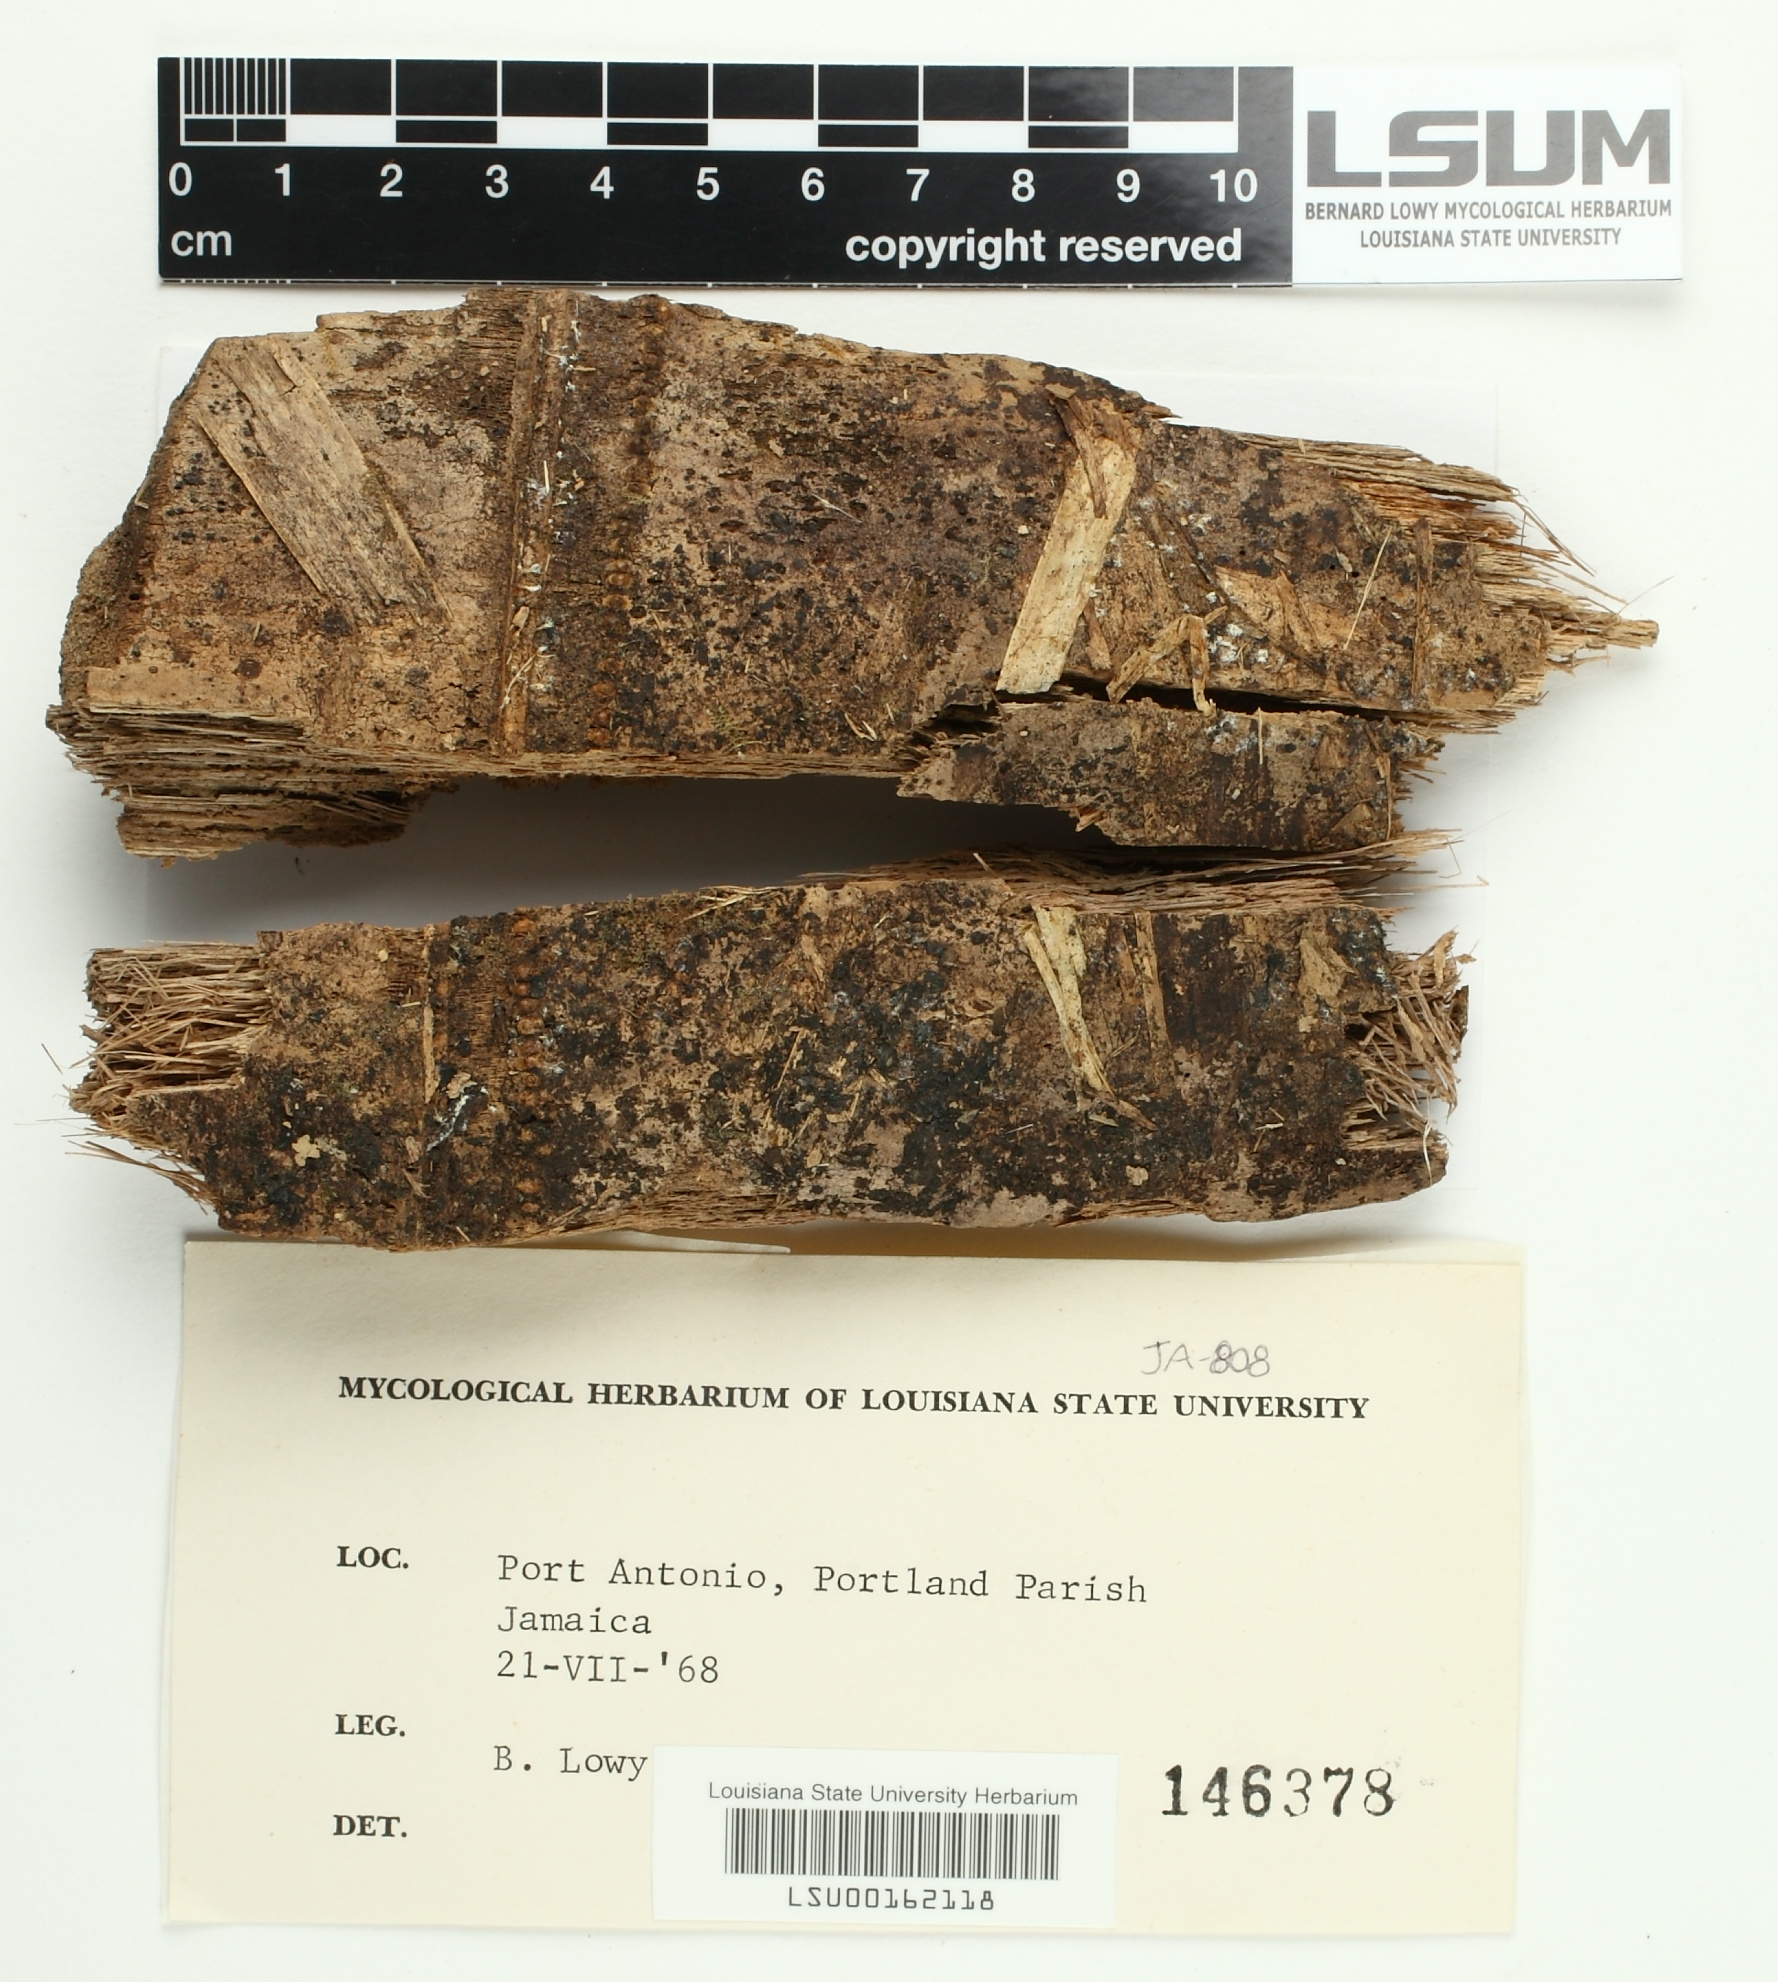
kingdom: Fungi
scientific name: Fungi
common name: Fungi
